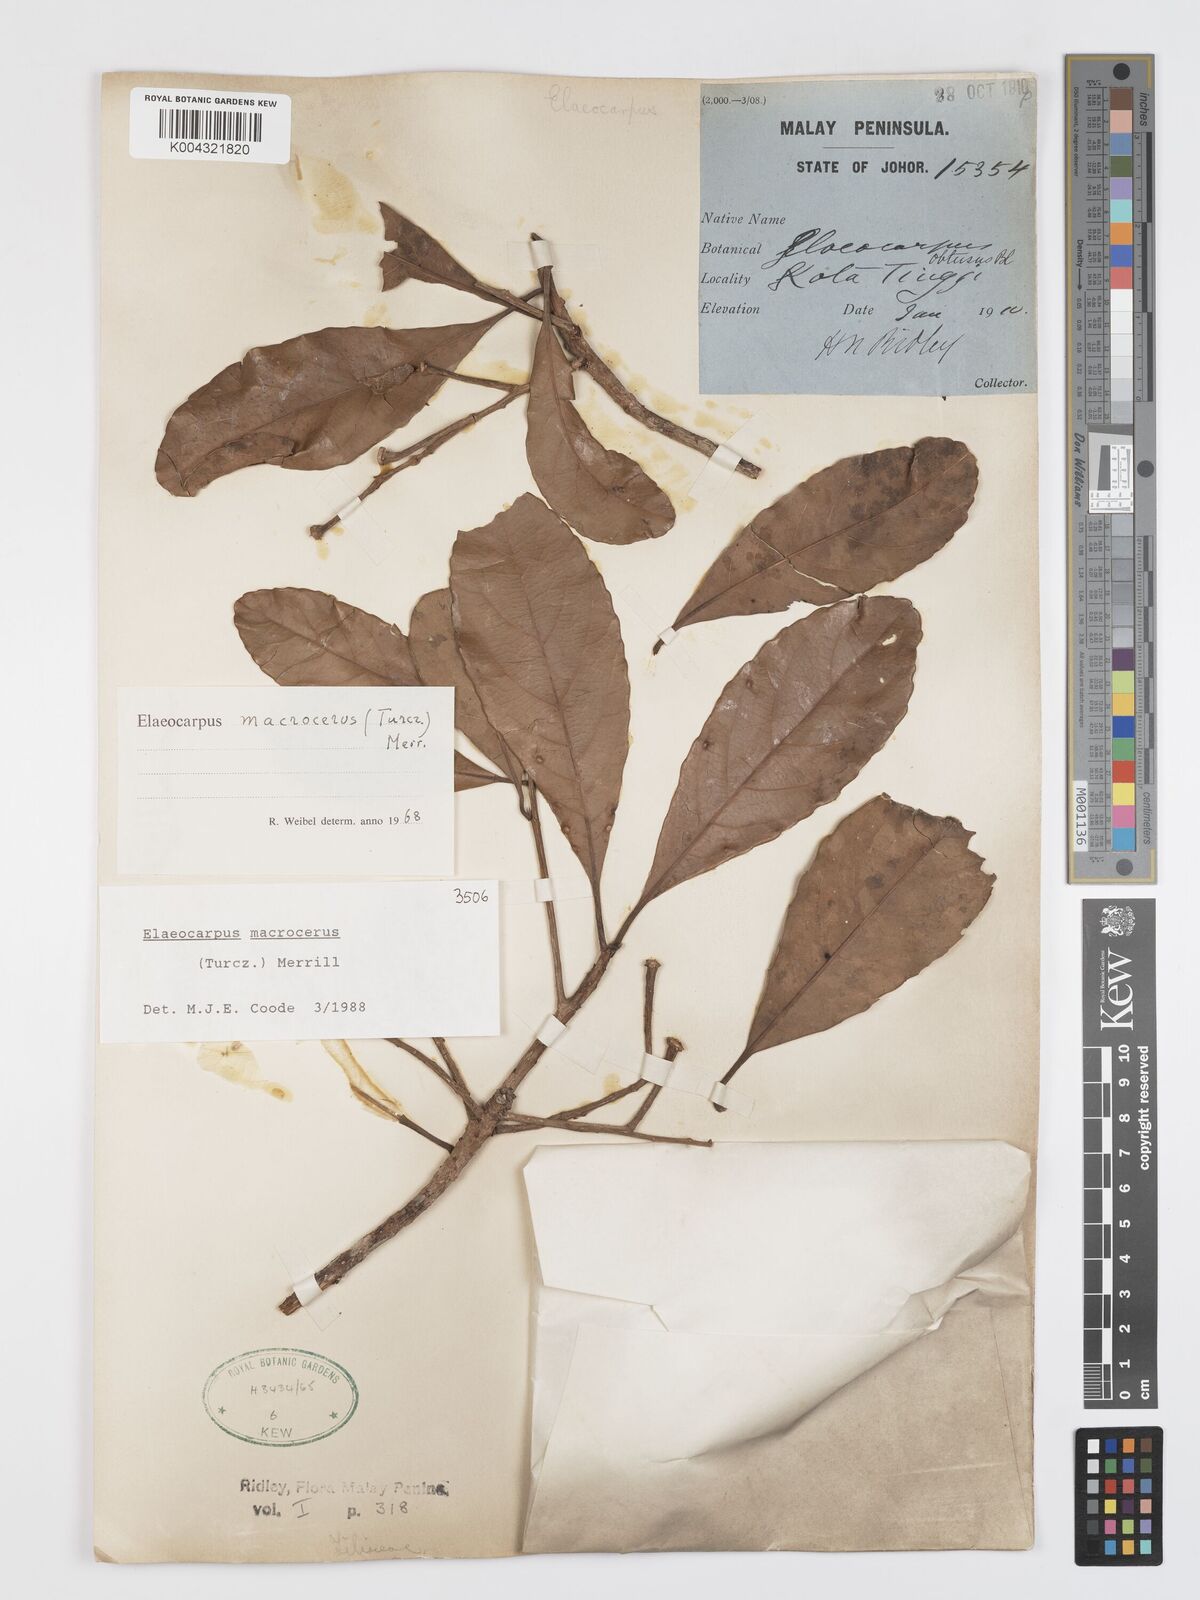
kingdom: Plantae
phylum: Tracheophyta
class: Magnoliopsida
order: Oxalidales
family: Elaeocarpaceae
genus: Elaeocarpus
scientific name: Elaeocarpus macrocerus
